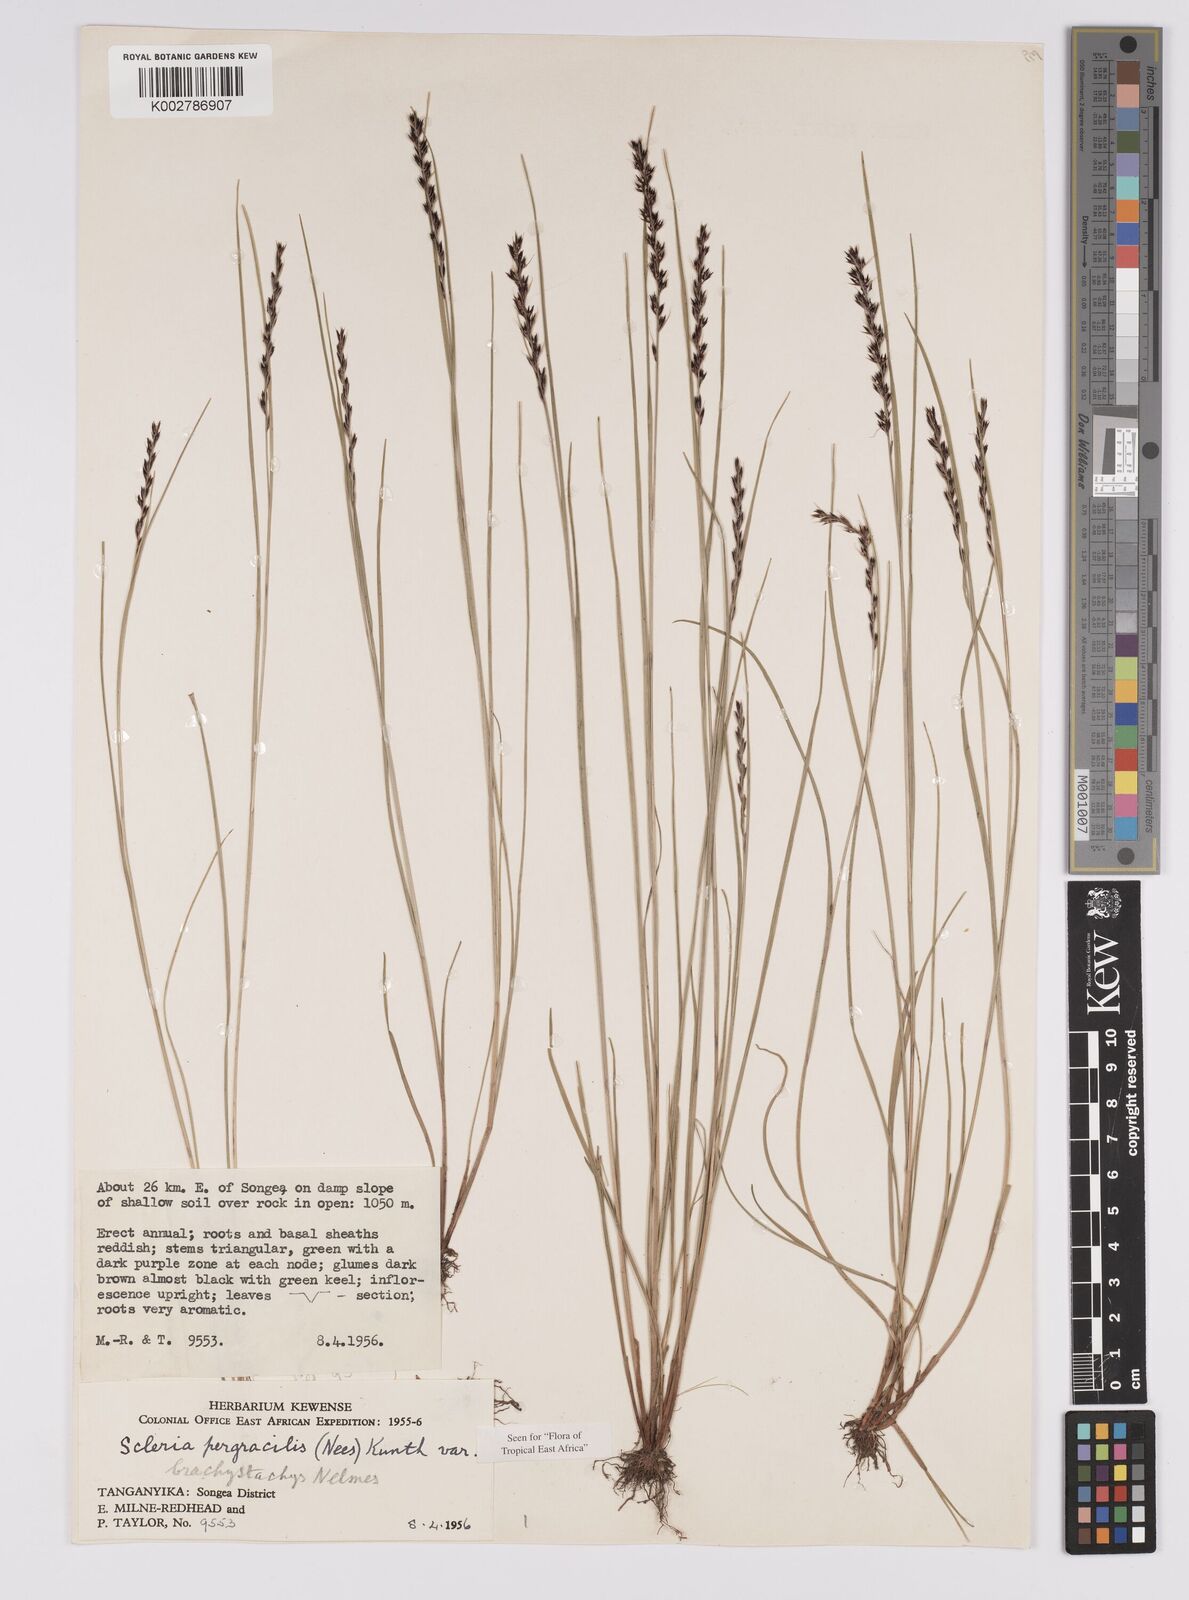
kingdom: Plantae
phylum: Tracheophyta
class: Liliopsida
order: Poales
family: Cyperaceae
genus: Scleria
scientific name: Scleria pergracilis
